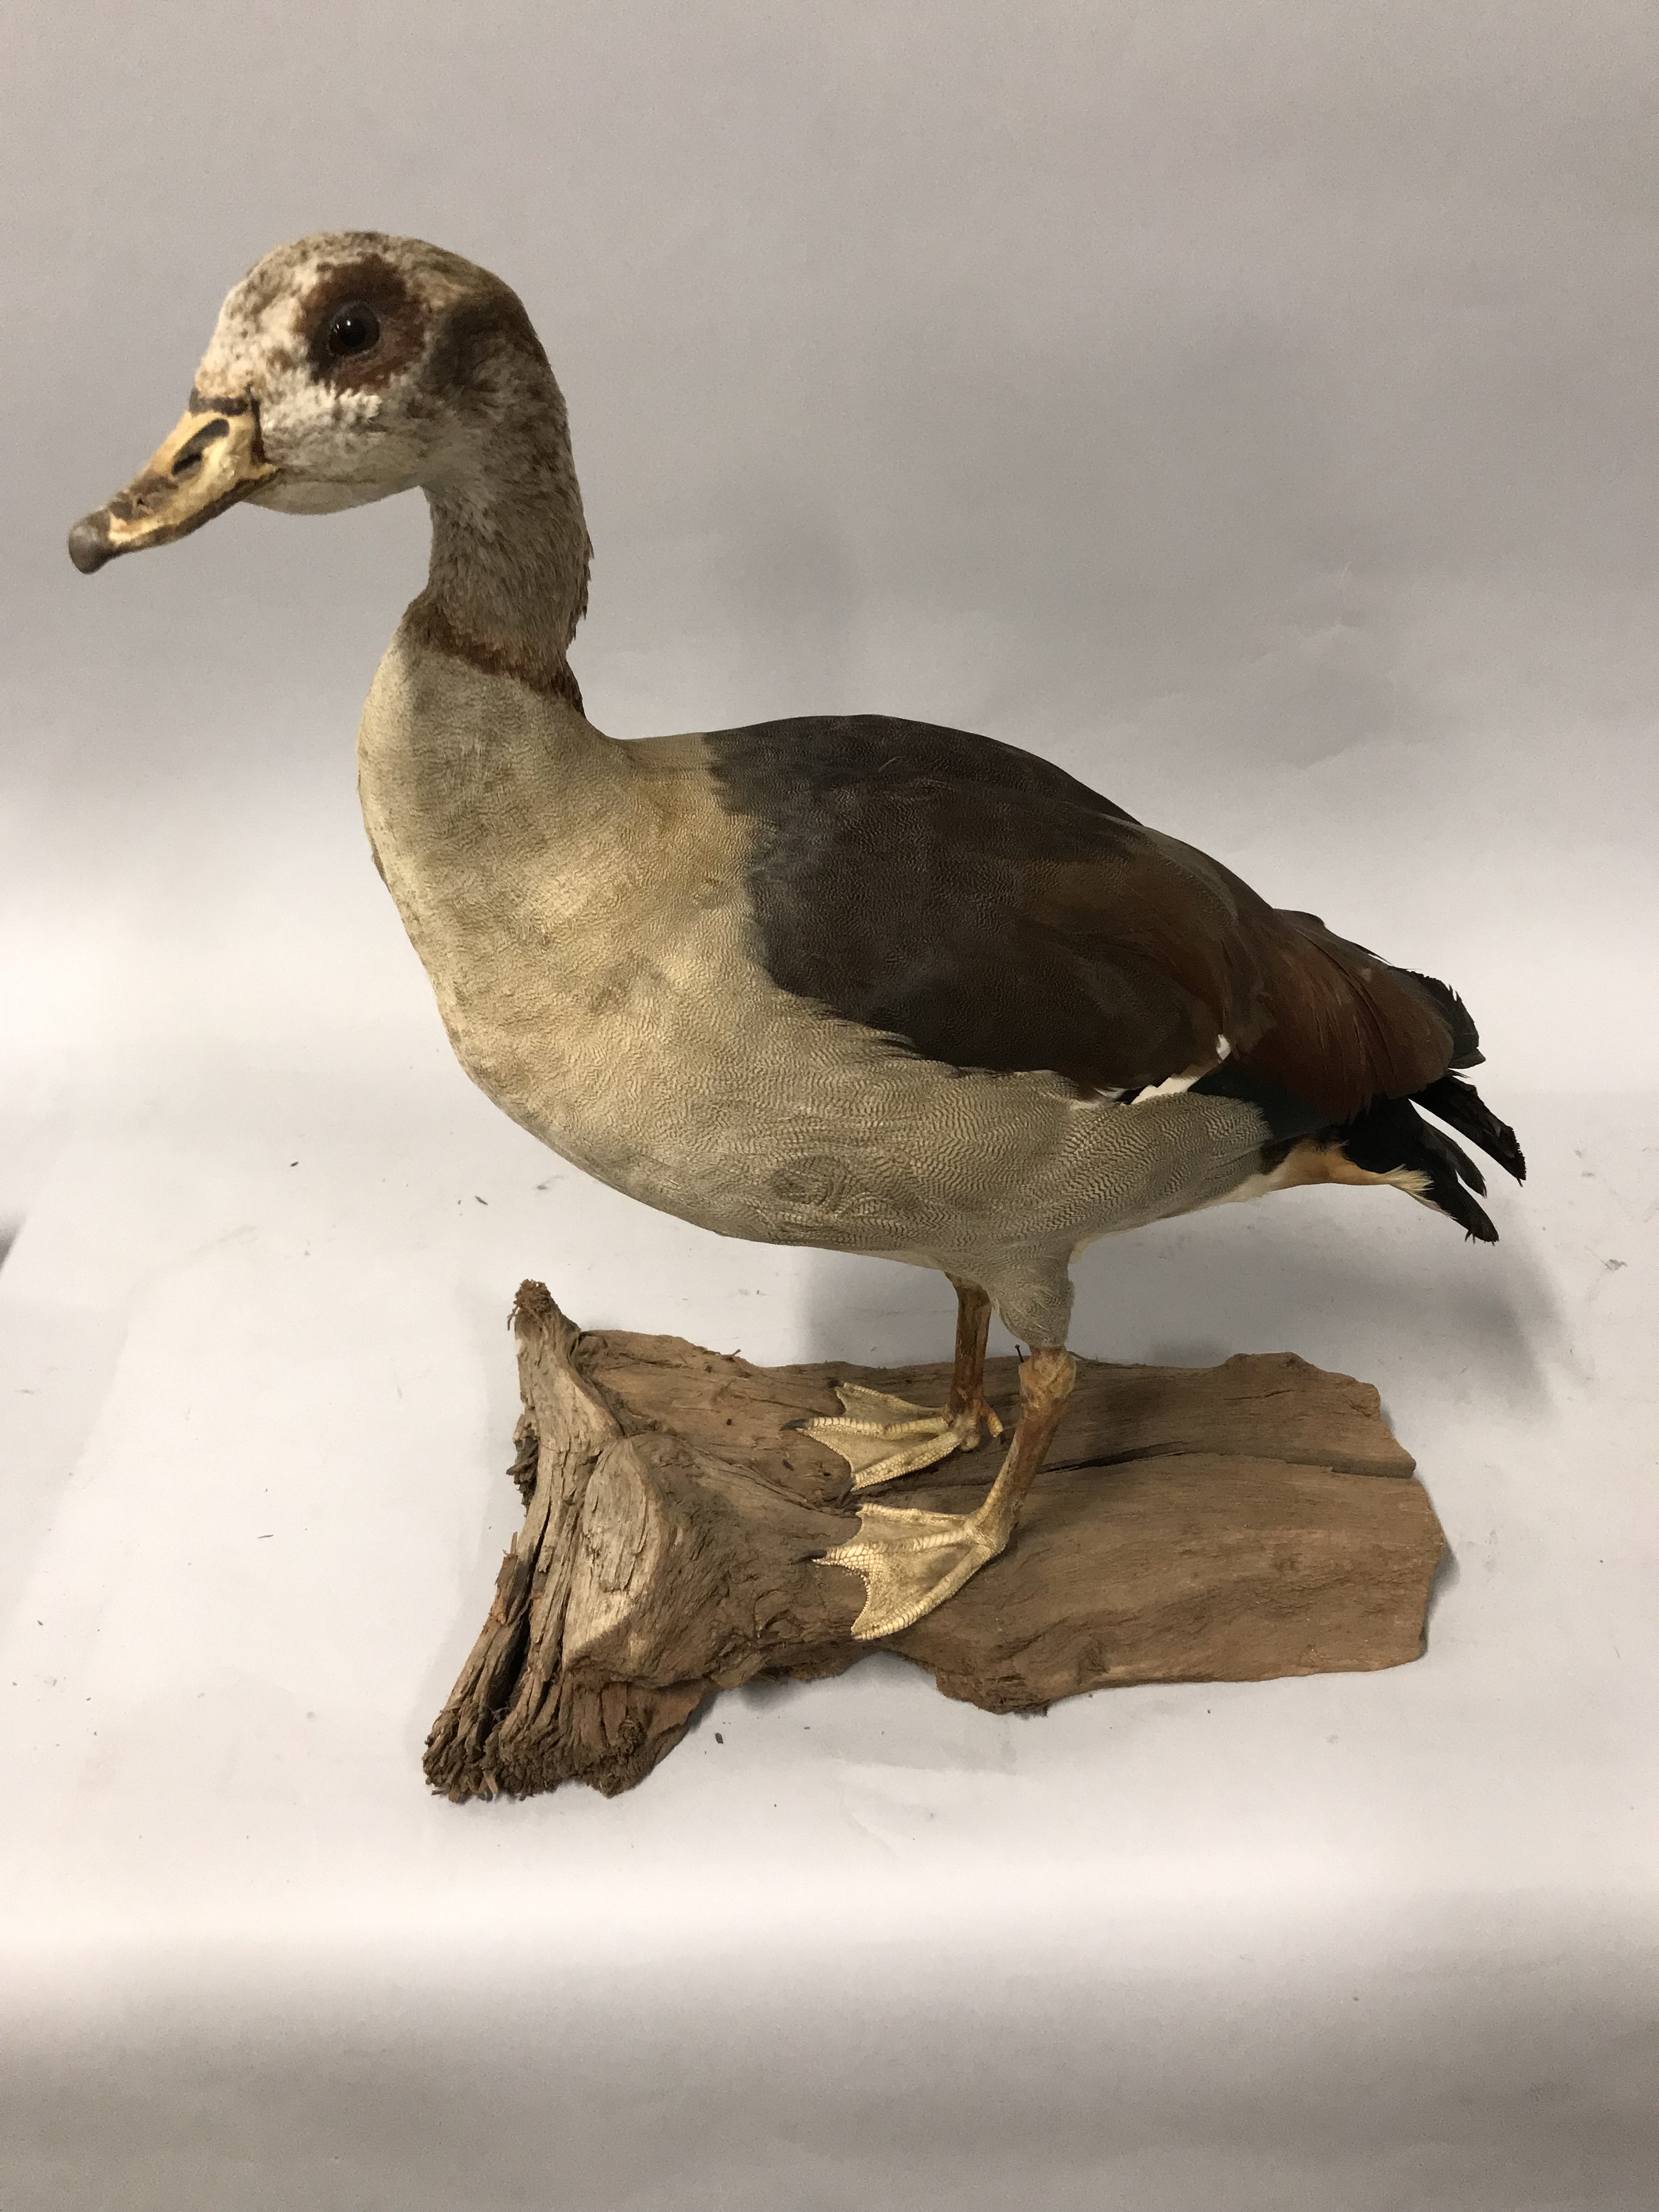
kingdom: Animalia
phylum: Chordata
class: Aves
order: Anseriformes
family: Anatidae
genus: Alopochen
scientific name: Alopochen aegyptiaca
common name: Egyptian goose
